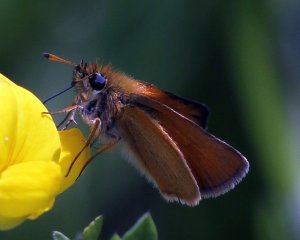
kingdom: Animalia
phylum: Arthropoda
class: Insecta
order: Lepidoptera
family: Hesperiidae
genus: Thymelicus
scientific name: Thymelicus lineola
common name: European Skipper
